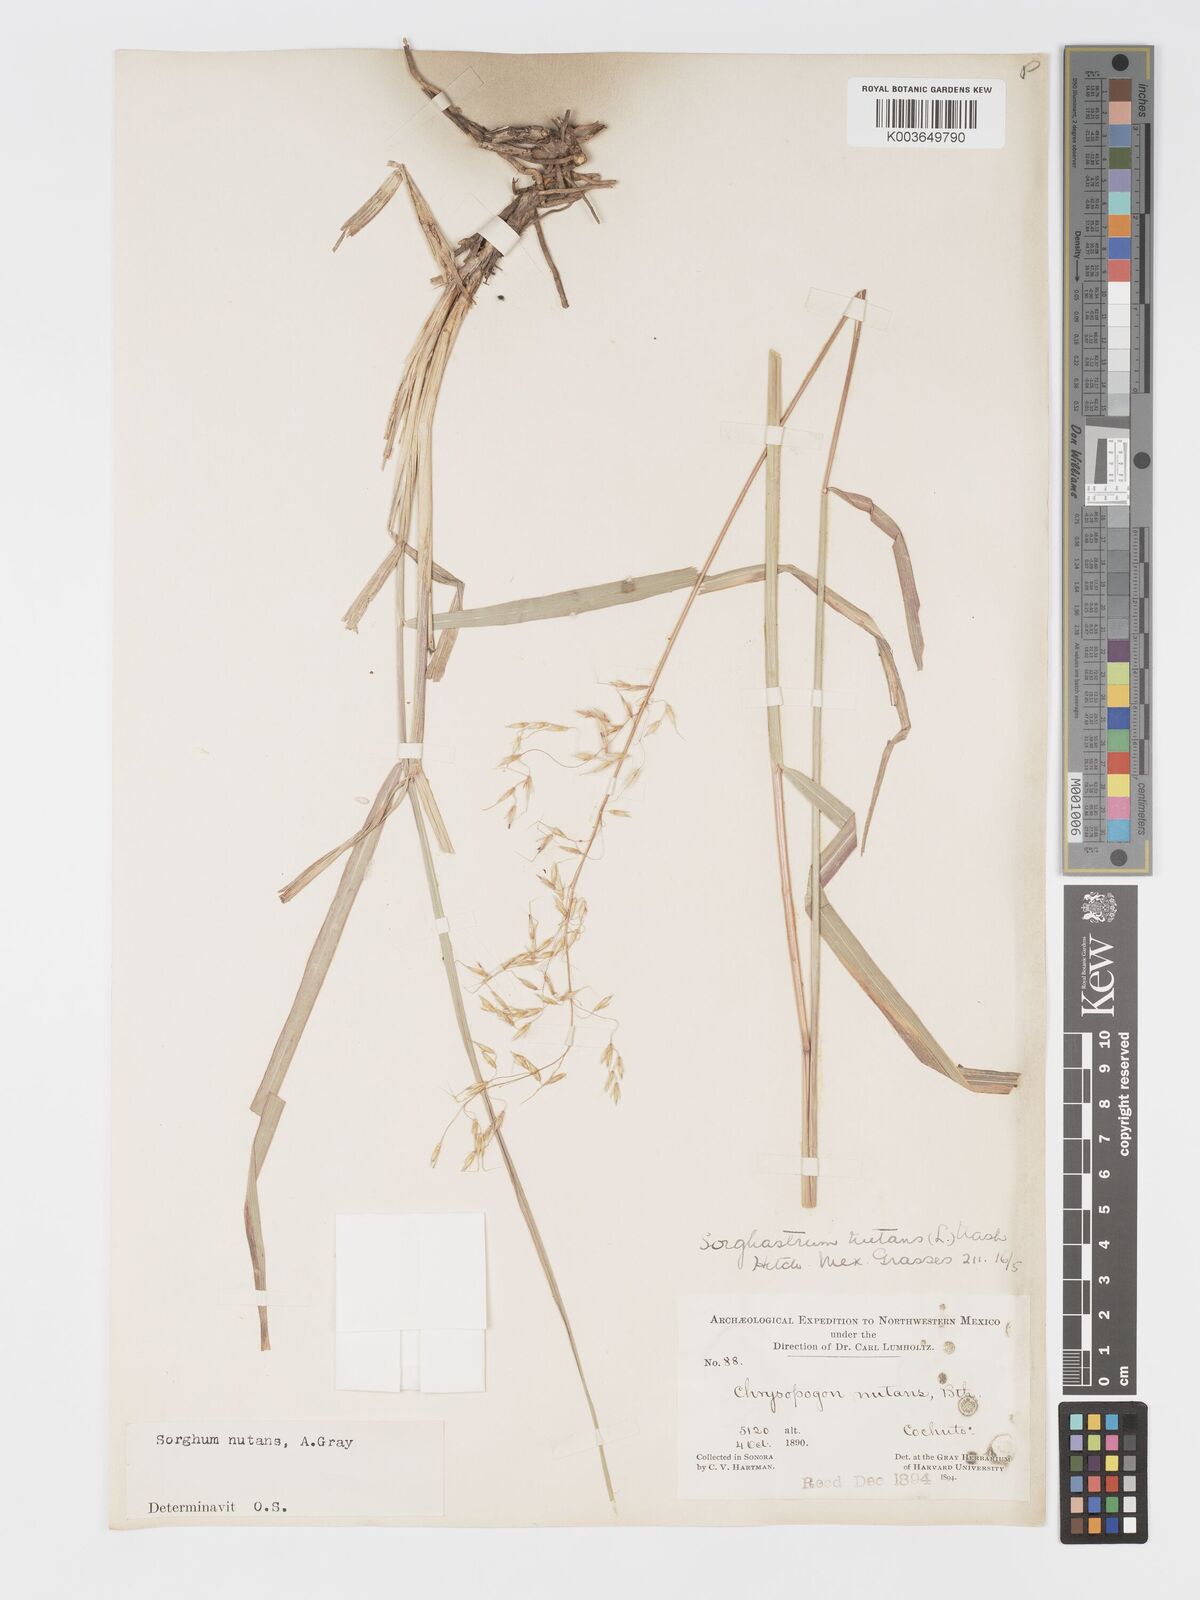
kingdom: Plantae
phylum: Tracheophyta
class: Liliopsida
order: Poales
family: Poaceae
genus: Sorghastrum
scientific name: Sorghastrum nutans
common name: Indian grass
